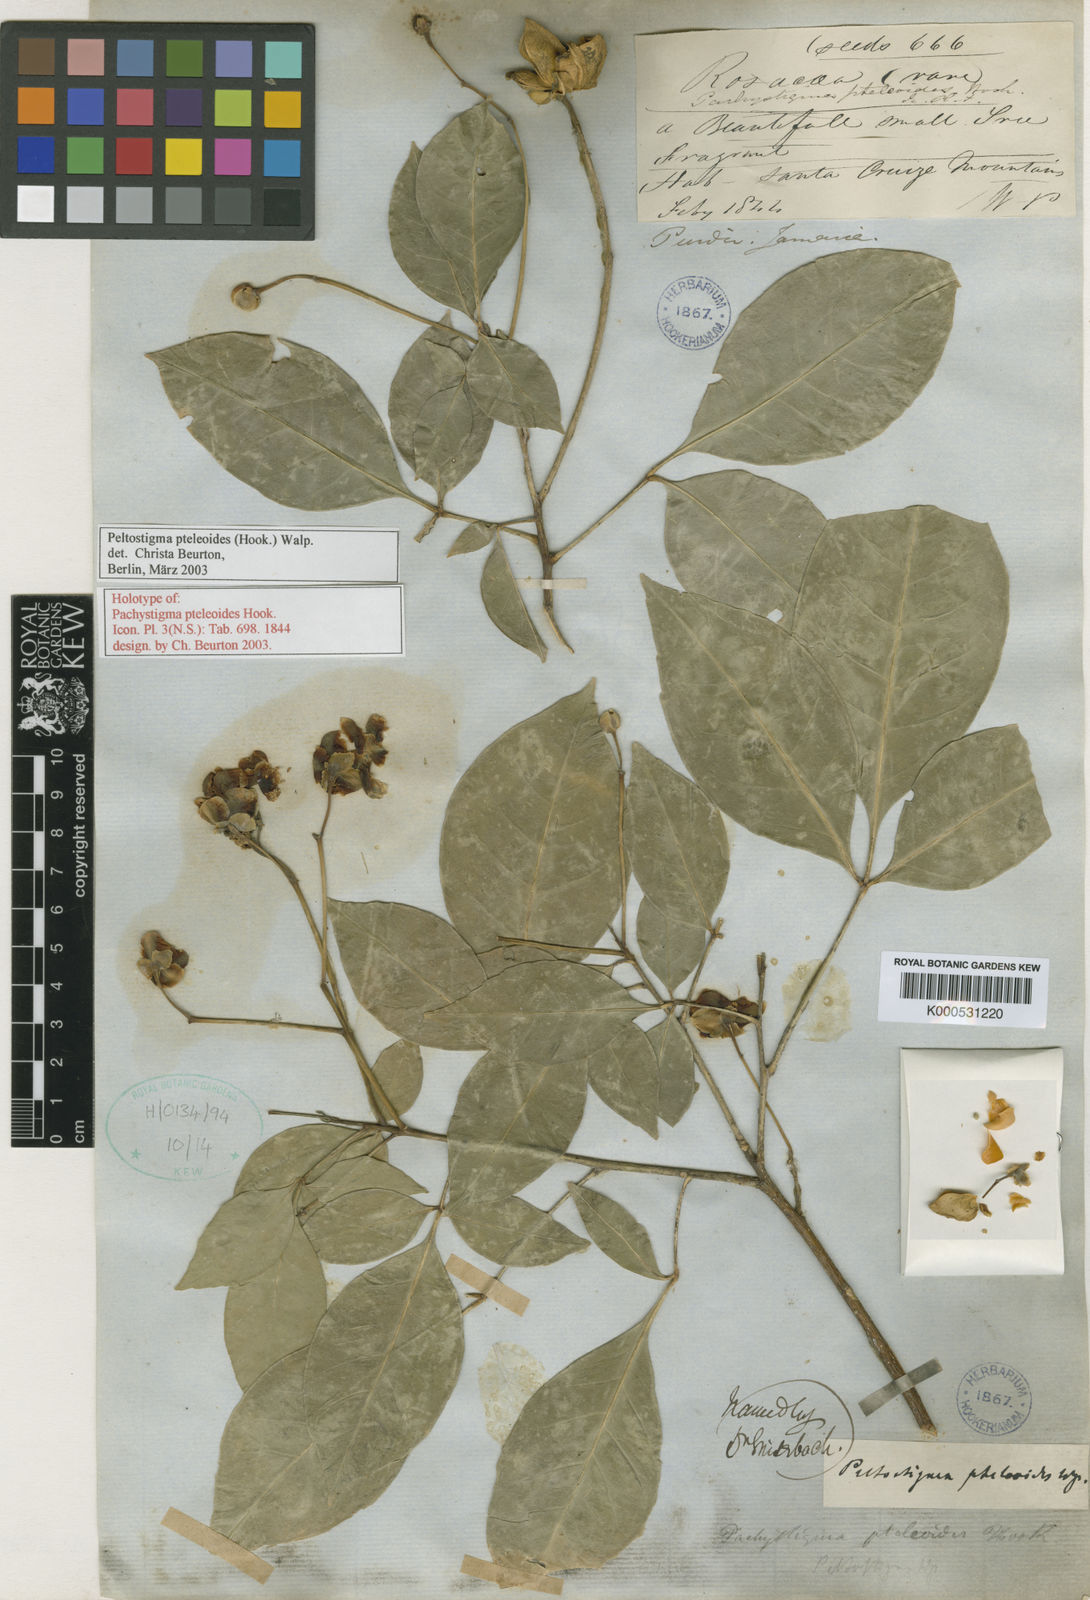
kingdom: Plantae
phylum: Tracheophyta
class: Magnoliopsida
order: Sapindales
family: Rutaceae
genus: Peltostigma
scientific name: Peltostigma
